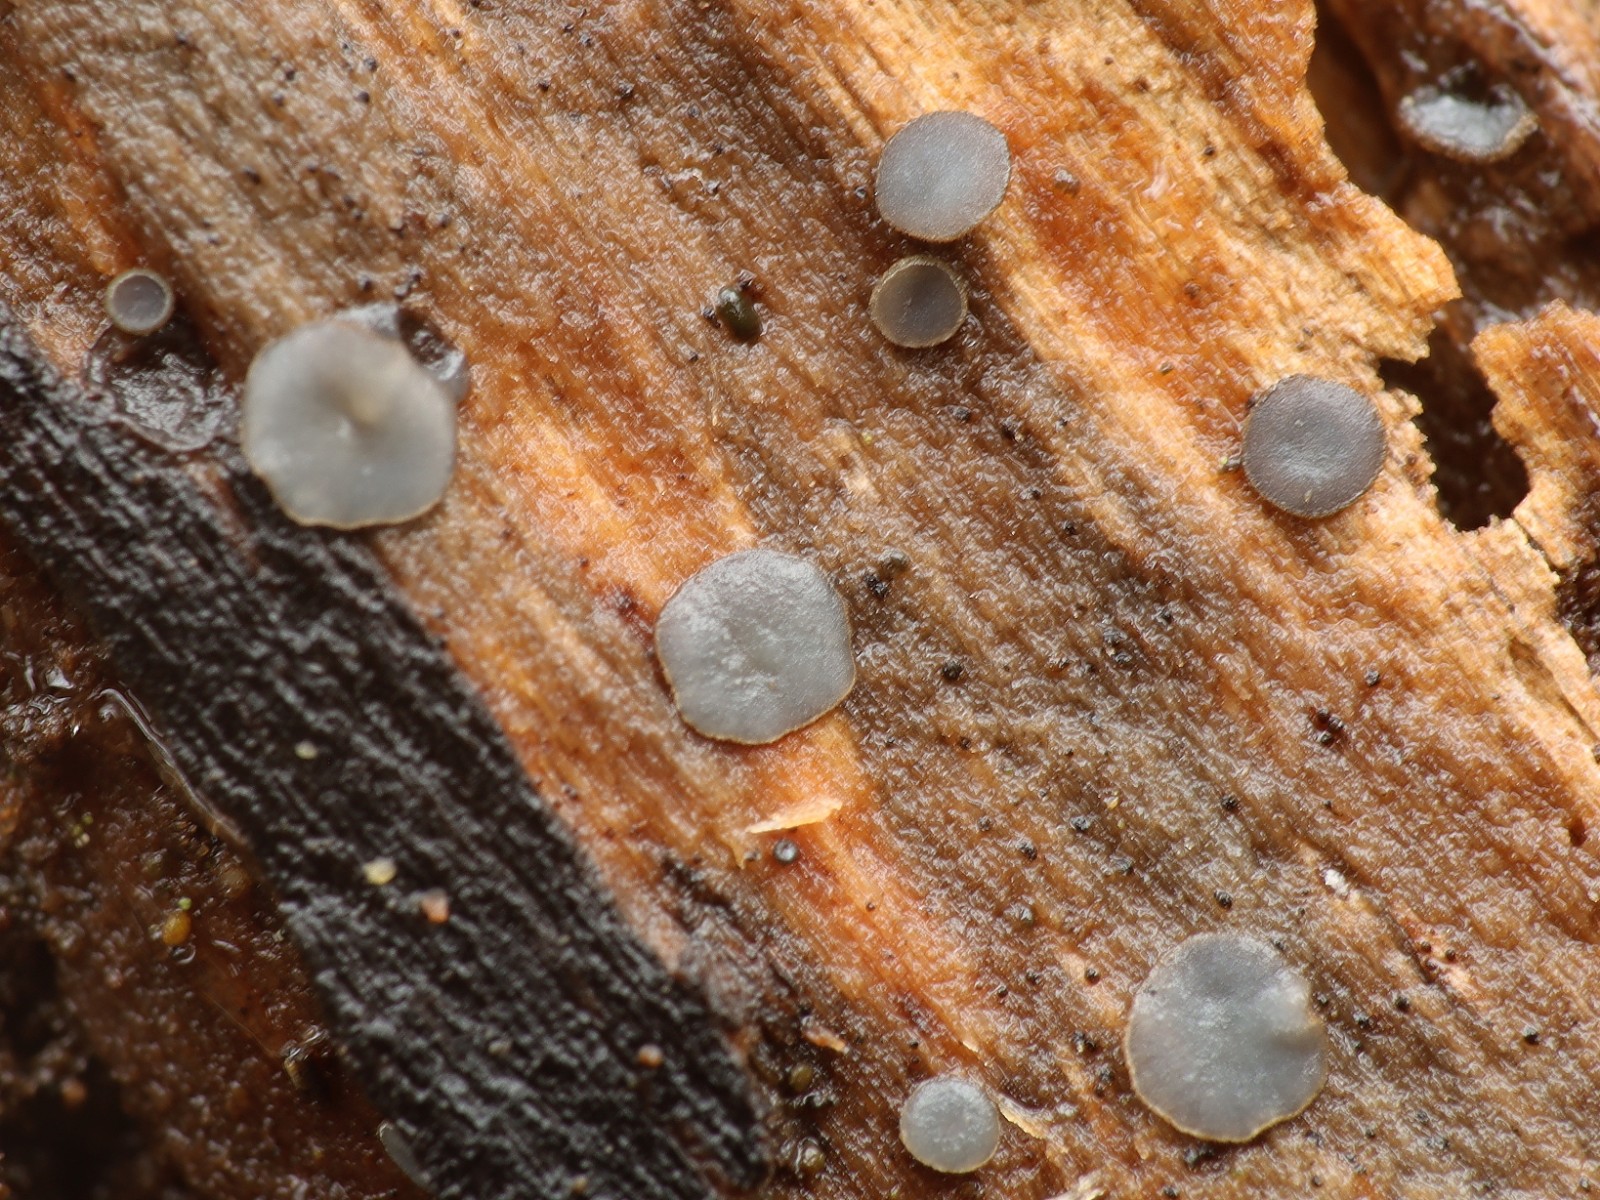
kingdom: Fungi
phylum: Ascomycota
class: Leotiomycetes
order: Helotiales
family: Mollisiaceae
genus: Mollisia
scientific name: Mollisia
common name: gråskive
